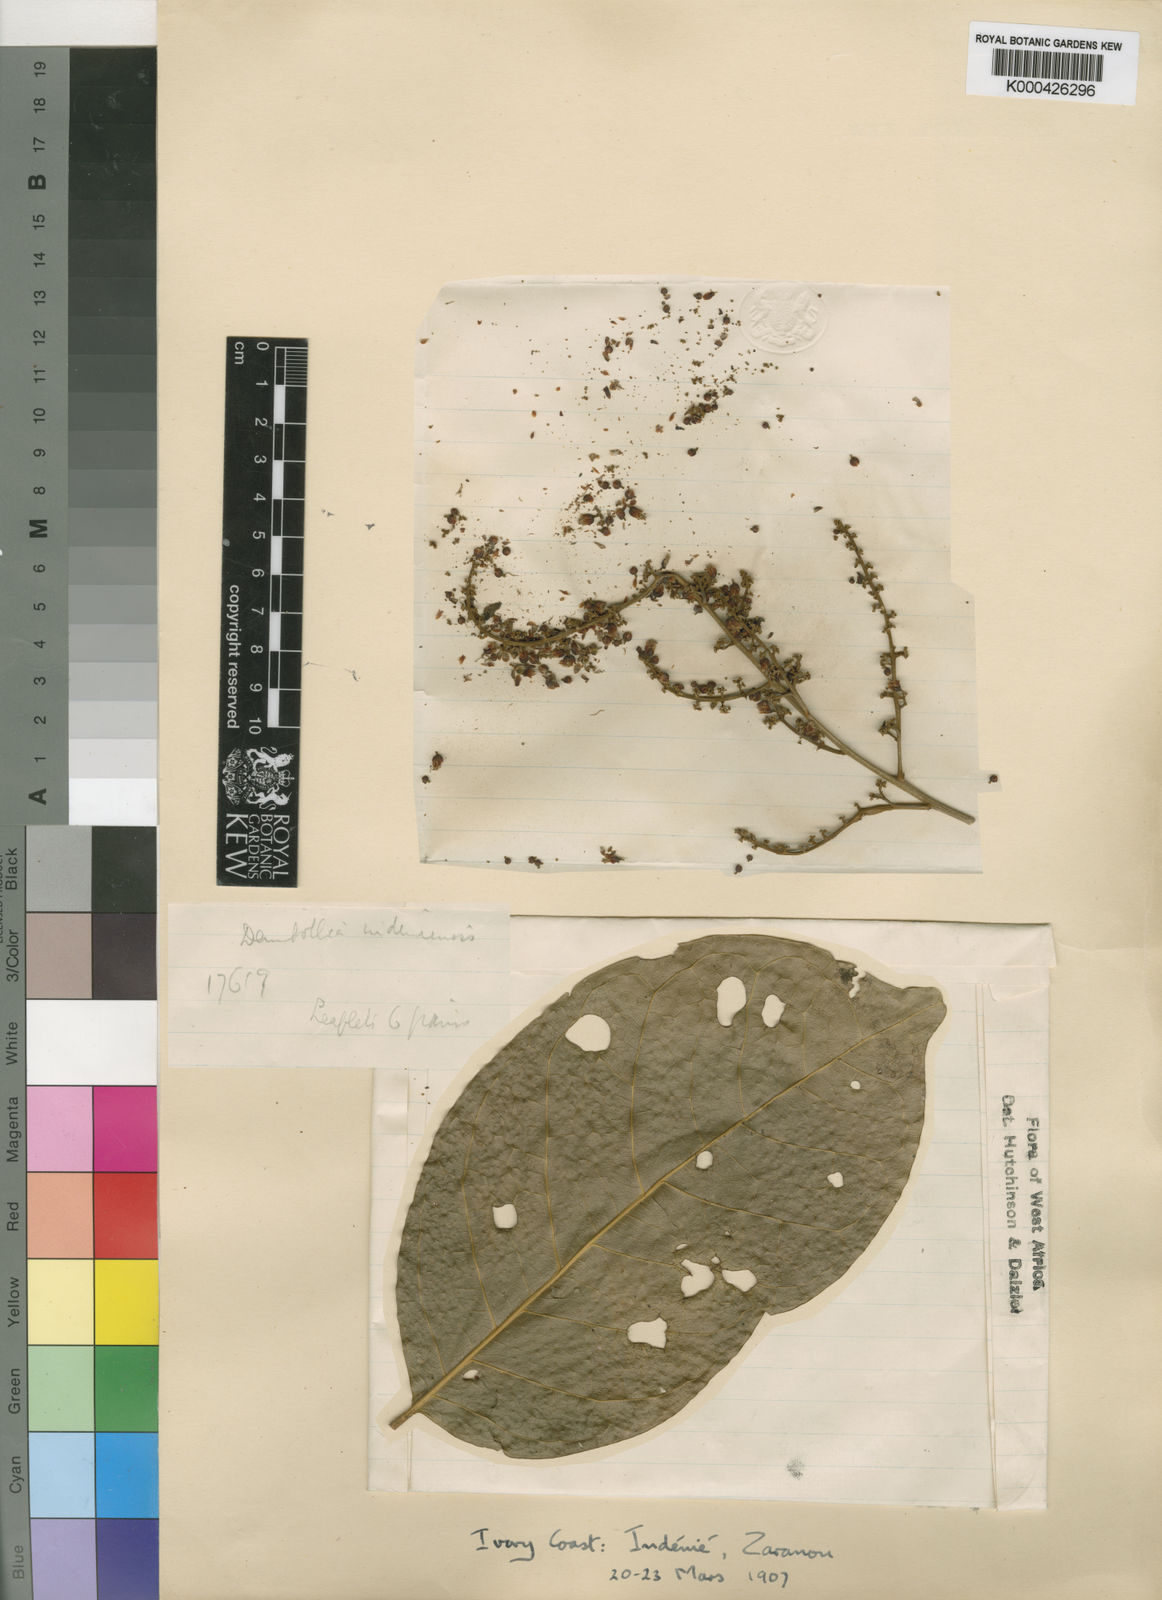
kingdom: Plantae
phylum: Tracheophyta
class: Magnoliopsida
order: Sapindales
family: Sapindaceae
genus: Deinbollia
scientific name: Deinbollia grandifolia
